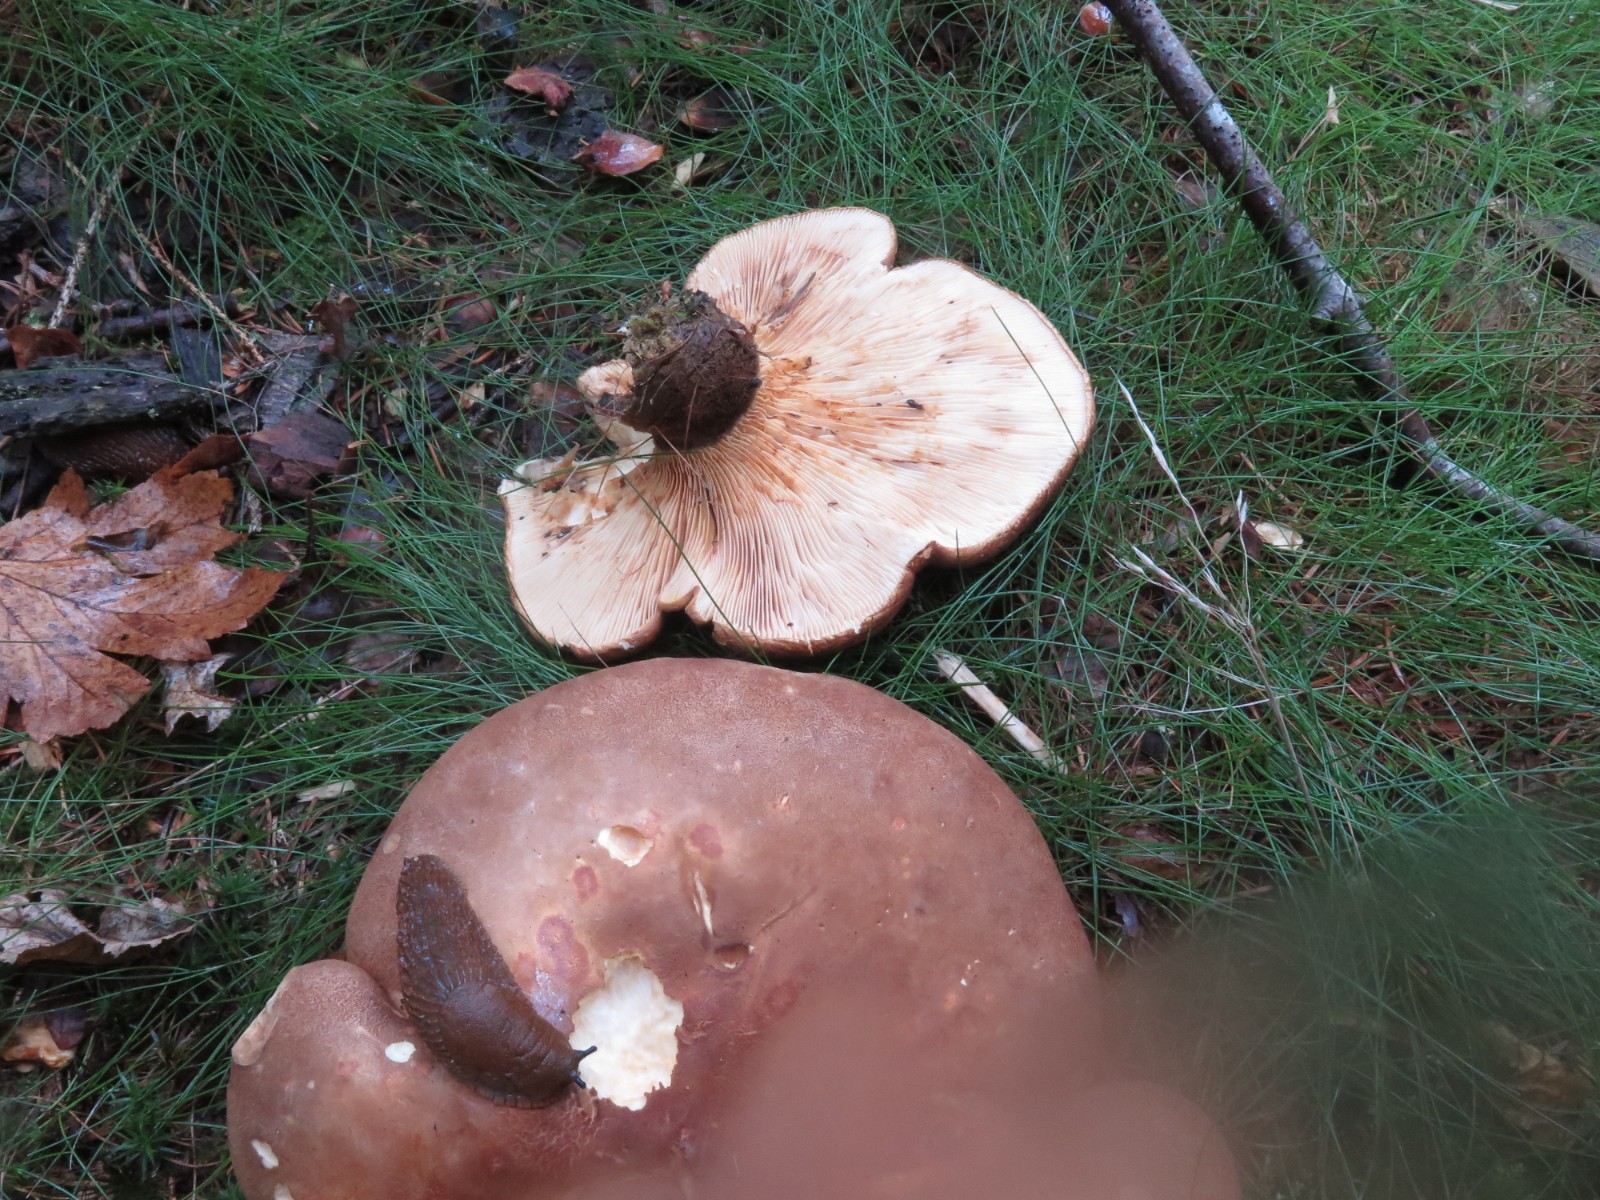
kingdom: Fungi
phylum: Basidiomycota
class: Agaricomycetes
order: Boletales
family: Tapinellaceae
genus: Tapinella
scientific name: Tapinella atrotomentosa
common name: sortfiltet viftesvamp
